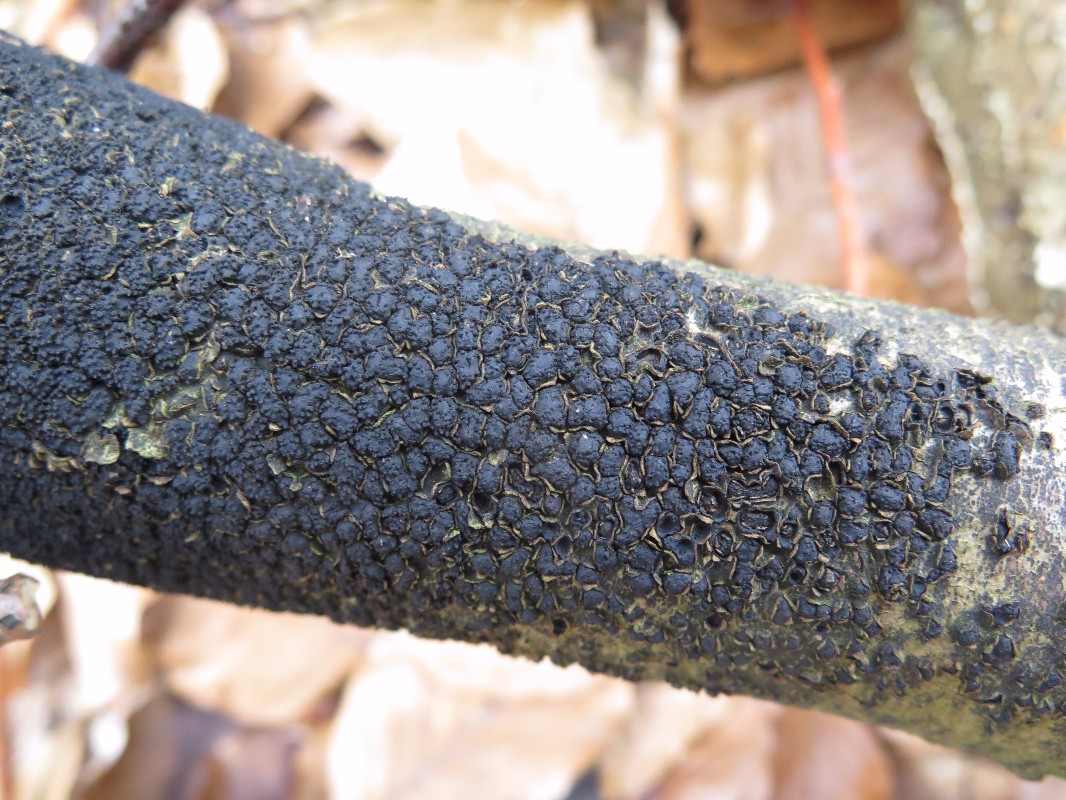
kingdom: Fungi
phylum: Ascomycota
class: Sordariomycetes
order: Xylariales
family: Melogrammataceae
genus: Melogramma
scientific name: Melogramma spiniferum
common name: bøgefod-kulhals
